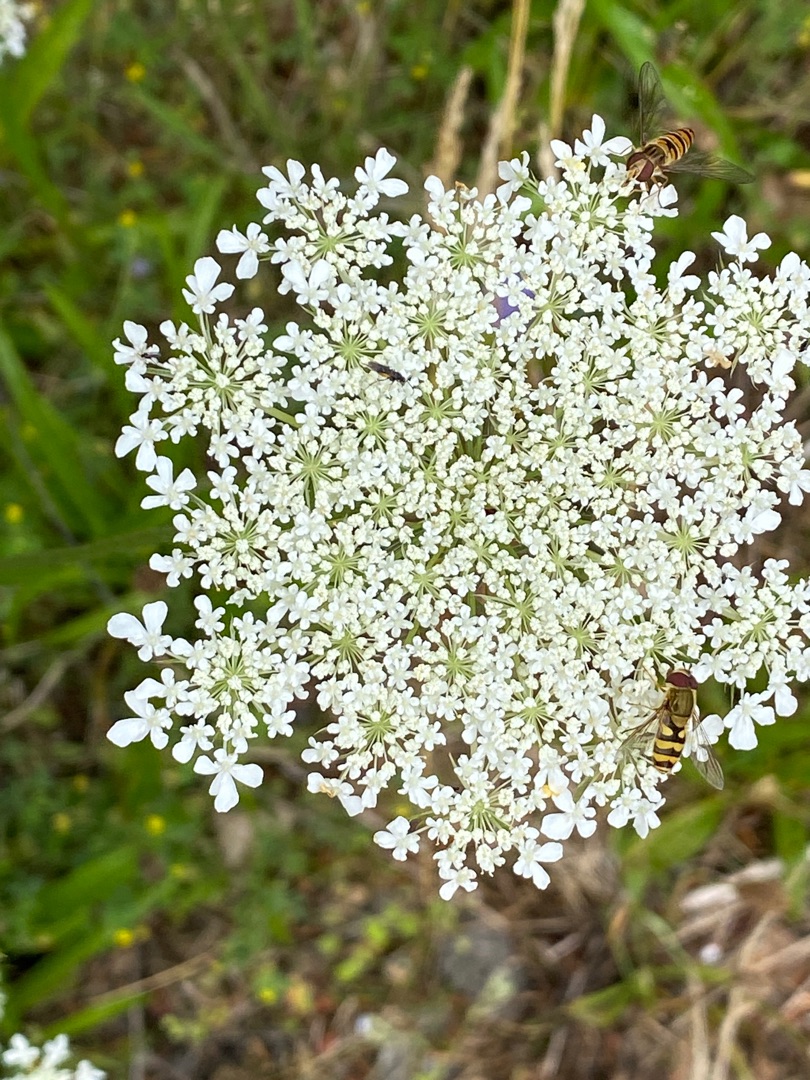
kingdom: Plantae
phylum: Tracheophyta
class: Magnoliopsida
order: Apiales
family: Apiaceae
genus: Daucus
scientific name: Daucus carota
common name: Gulerod
